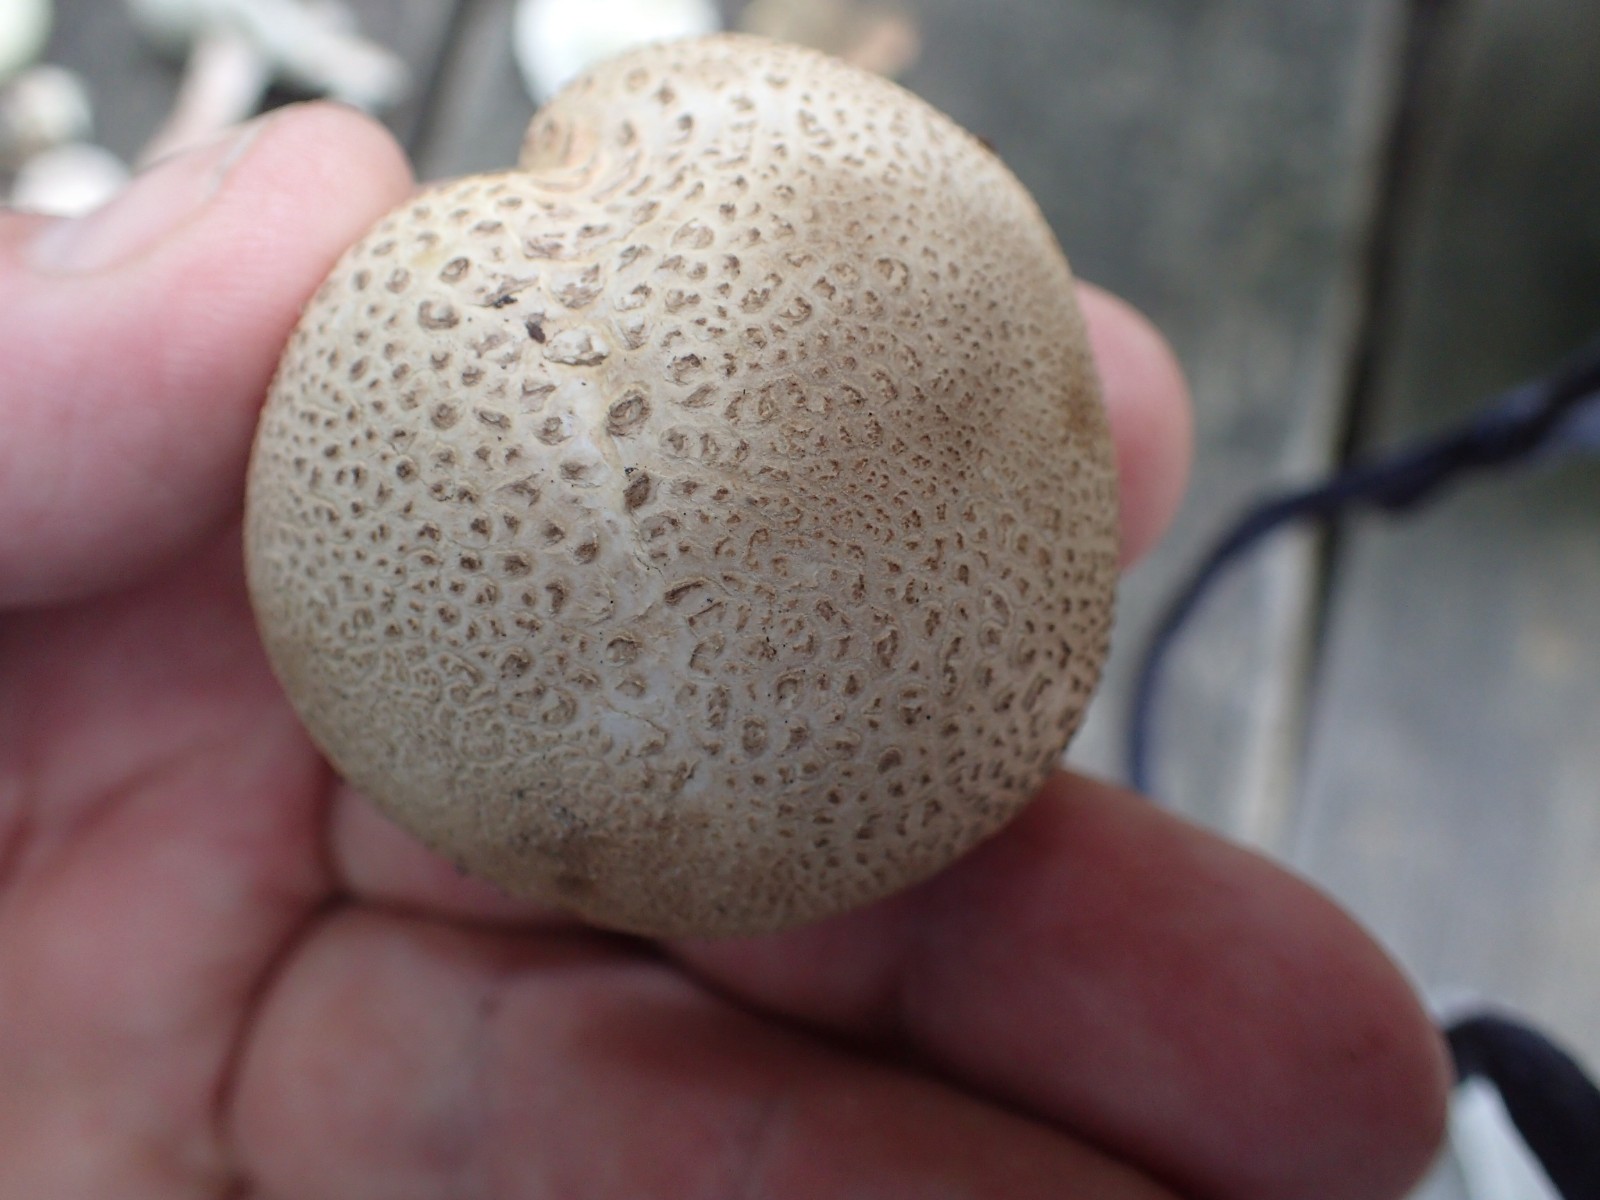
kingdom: Fungi
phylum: Basidiomycota
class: Agaricomycetes
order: Boletales
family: Sclerodermataceae
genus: Scleroderma
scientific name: Scleroderma citrinum
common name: almindelig bruskbold
